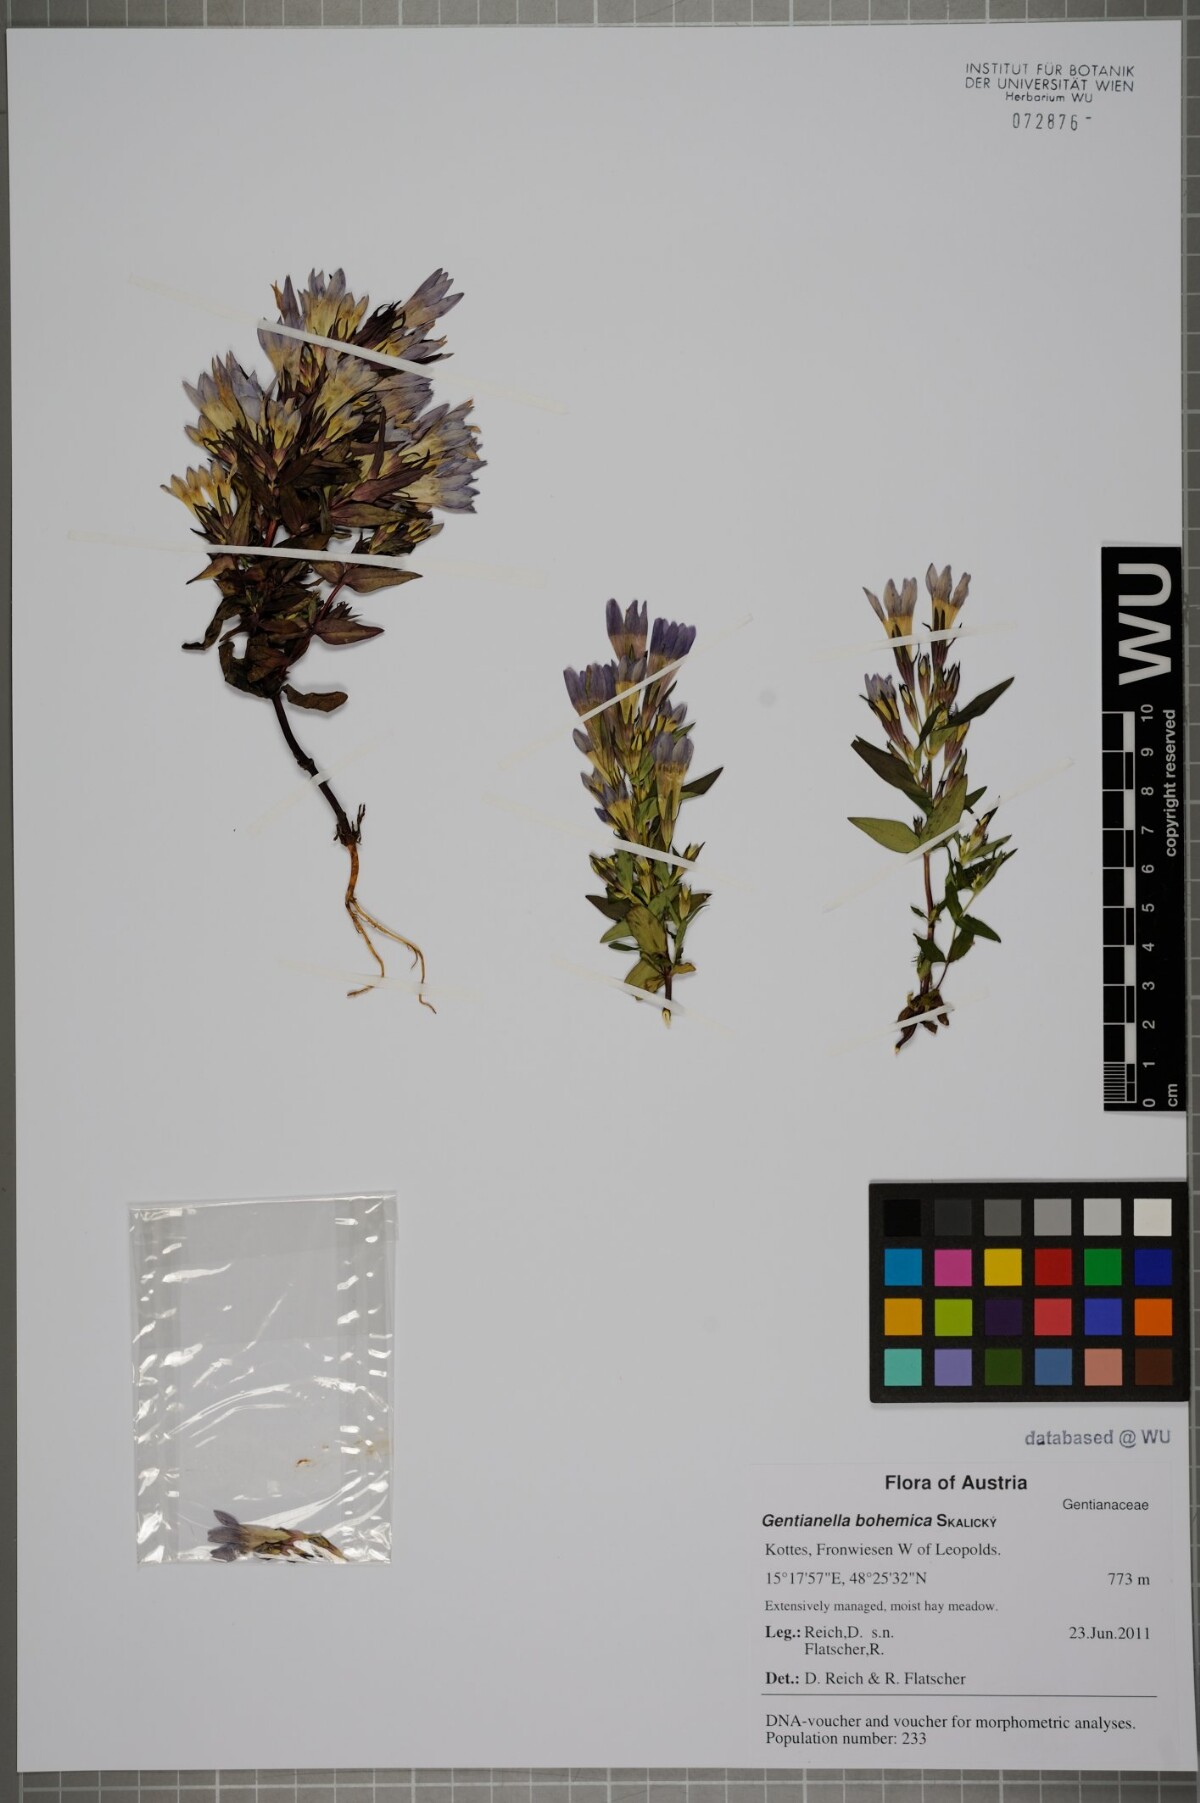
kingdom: Plantae
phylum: Tracheophyta
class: Magnoliopsida
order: Gentianales
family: Gentianaceae
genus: Gentianella
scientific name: Gentianella praecox
